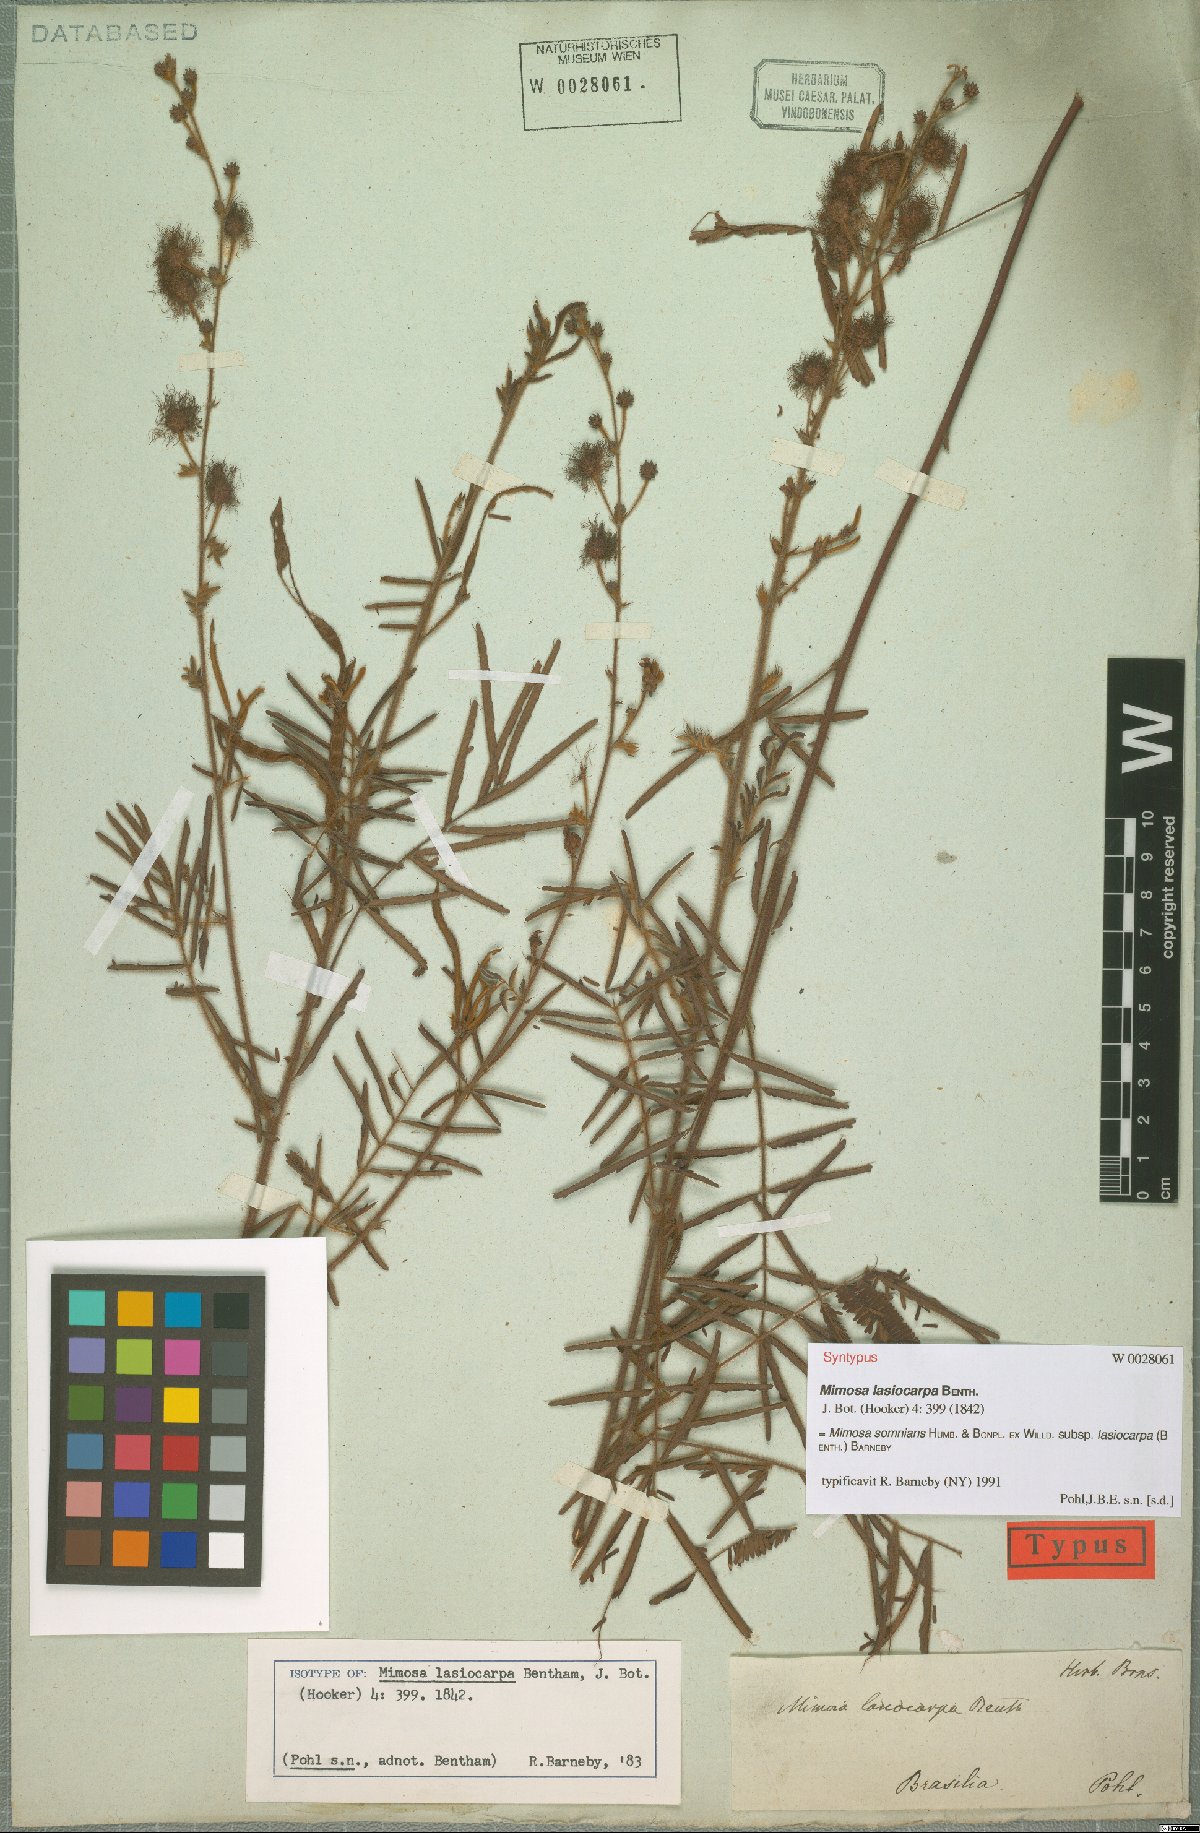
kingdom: Plantae
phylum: Tracheophyta
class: Magnoliopsida
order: Fabales
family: Fabaceae
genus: Mimosa
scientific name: Mimosa somnians
